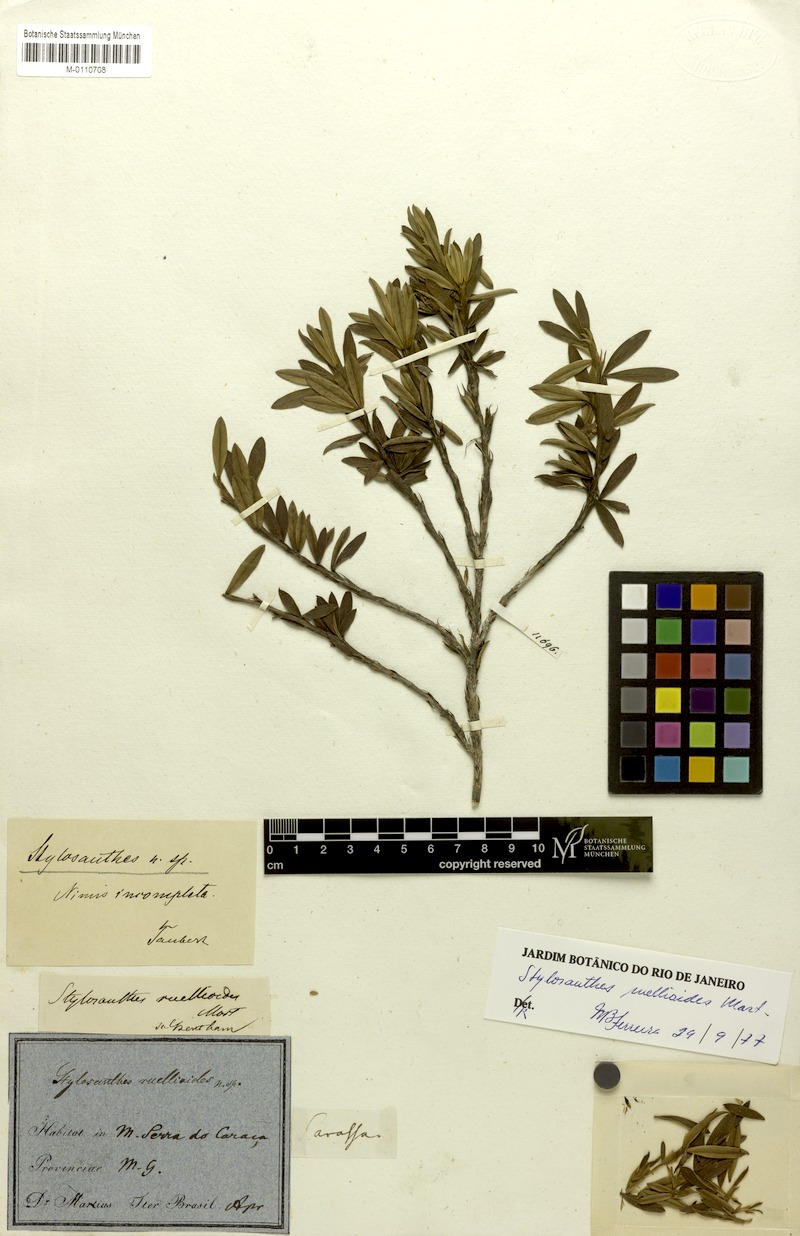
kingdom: Plantae
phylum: Tracheophyta
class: Magnoliopsida
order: Fabales
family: Fabaceae
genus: Stylosanthes
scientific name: Stylosanthes ruellioides
